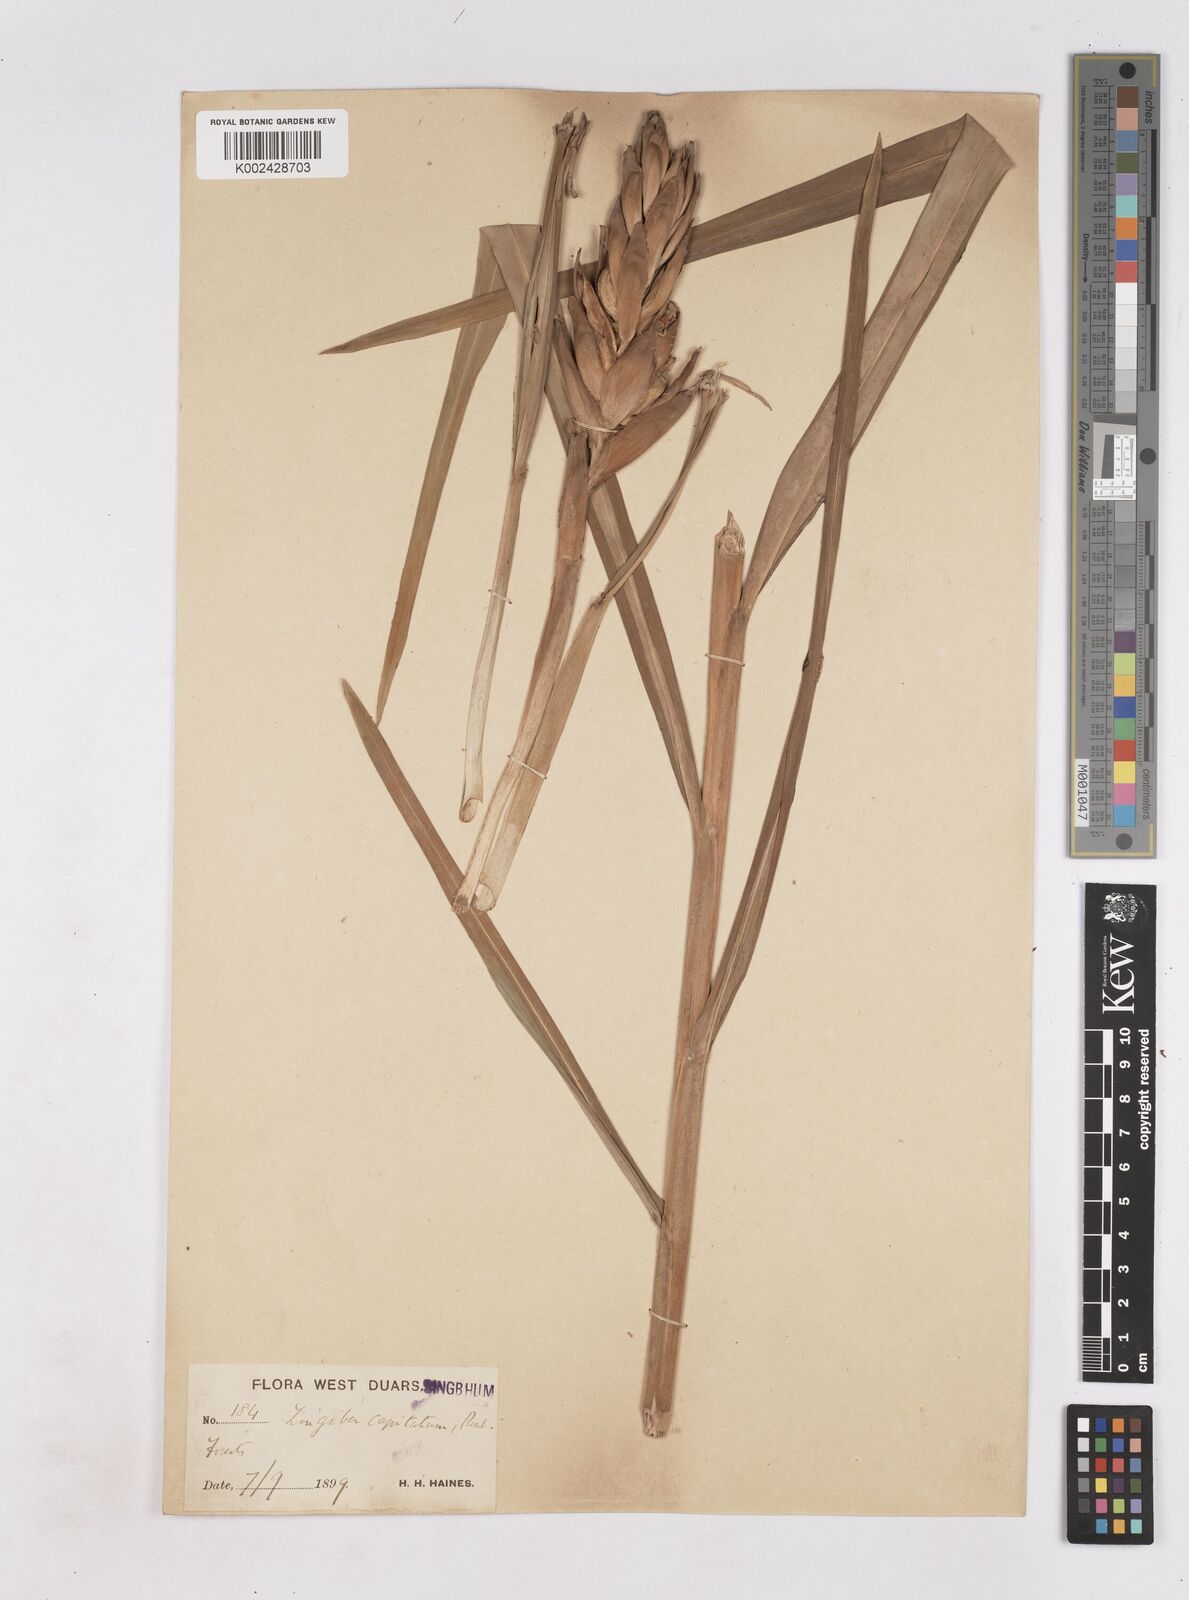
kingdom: Plantae
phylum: Tracheophyta
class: Liliopsida
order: Zingiberales
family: Zingiberaceae
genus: Zingiber
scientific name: Zingiber capitatum
